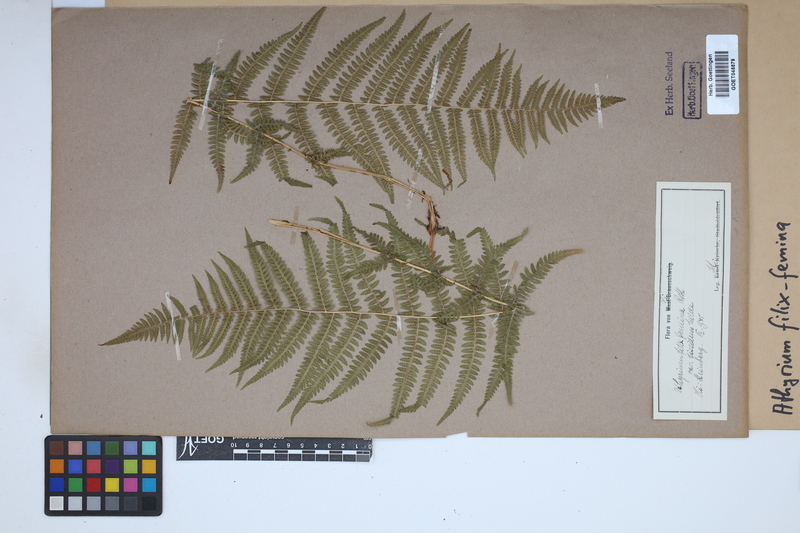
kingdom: Plantae
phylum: Tracheophyta
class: Polypodiopsida
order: Polypodiales
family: Athyriaceae
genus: Athyrium
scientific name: Athyrium filix-femina
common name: Lady fern
